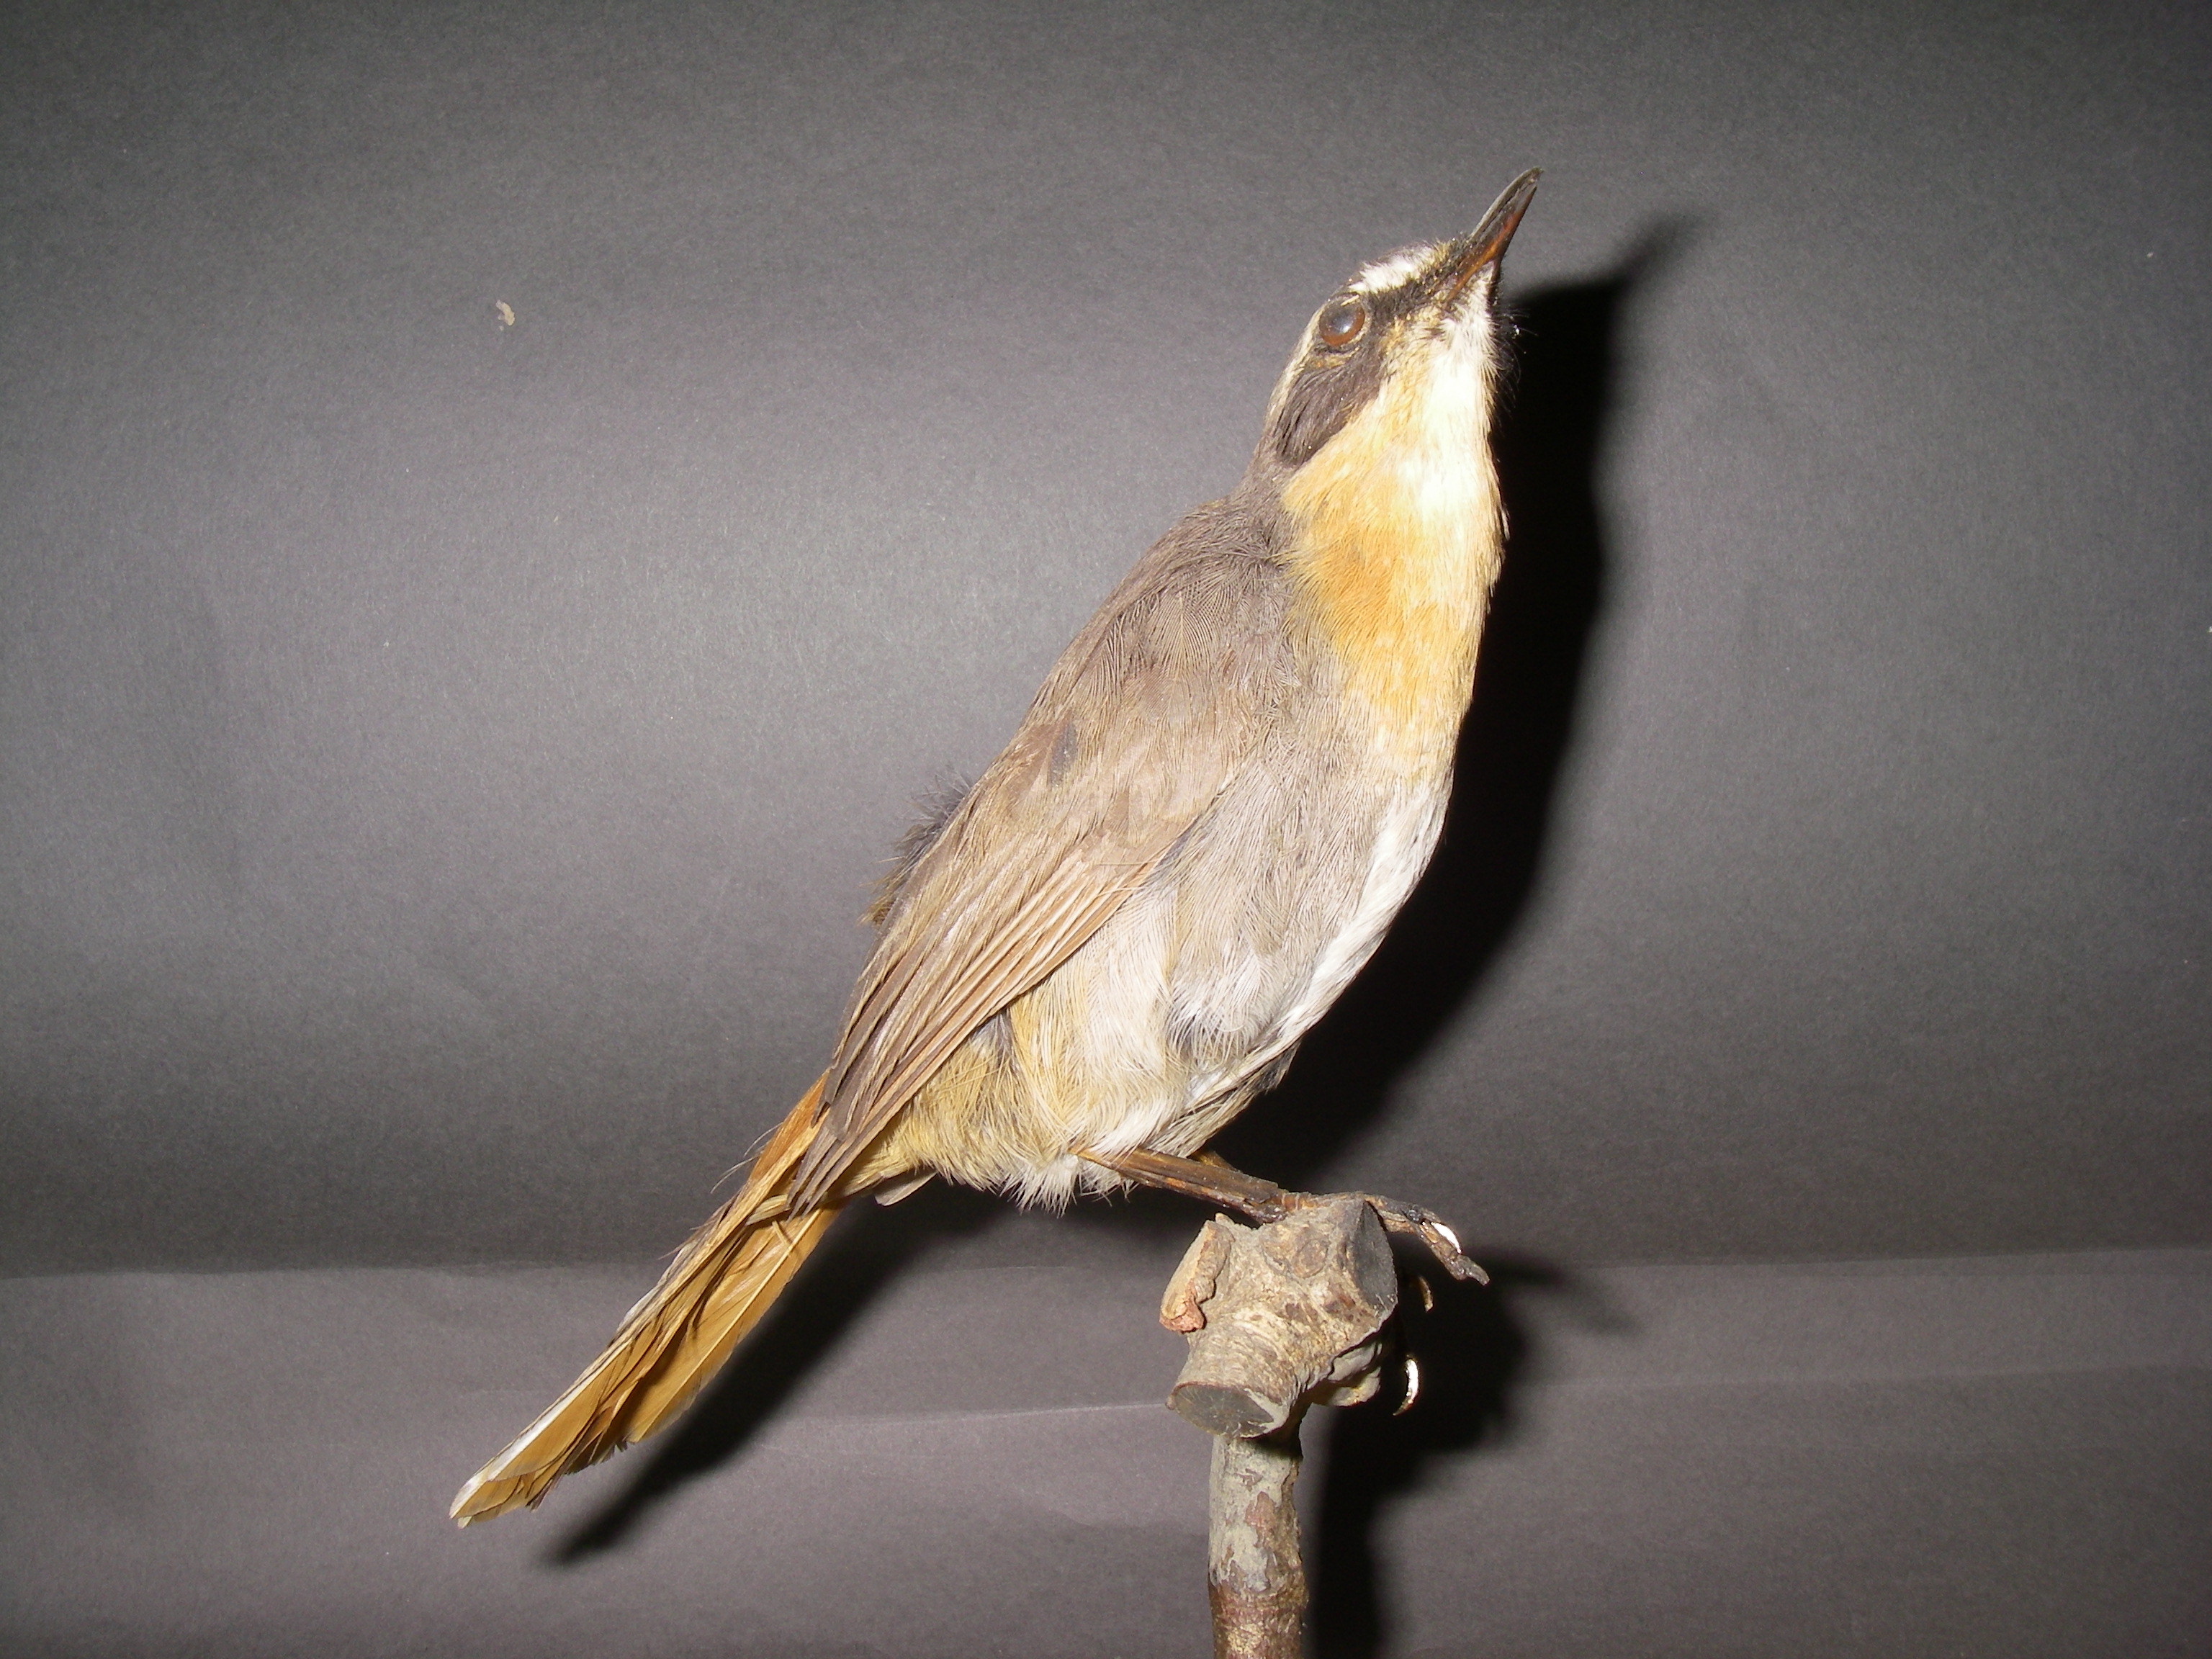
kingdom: Animalia
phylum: Chordata
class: Aves
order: Passeriformes
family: Muscicapidae
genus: Dessonornis
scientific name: Dessonornis caffer
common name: Cape robin-chat
